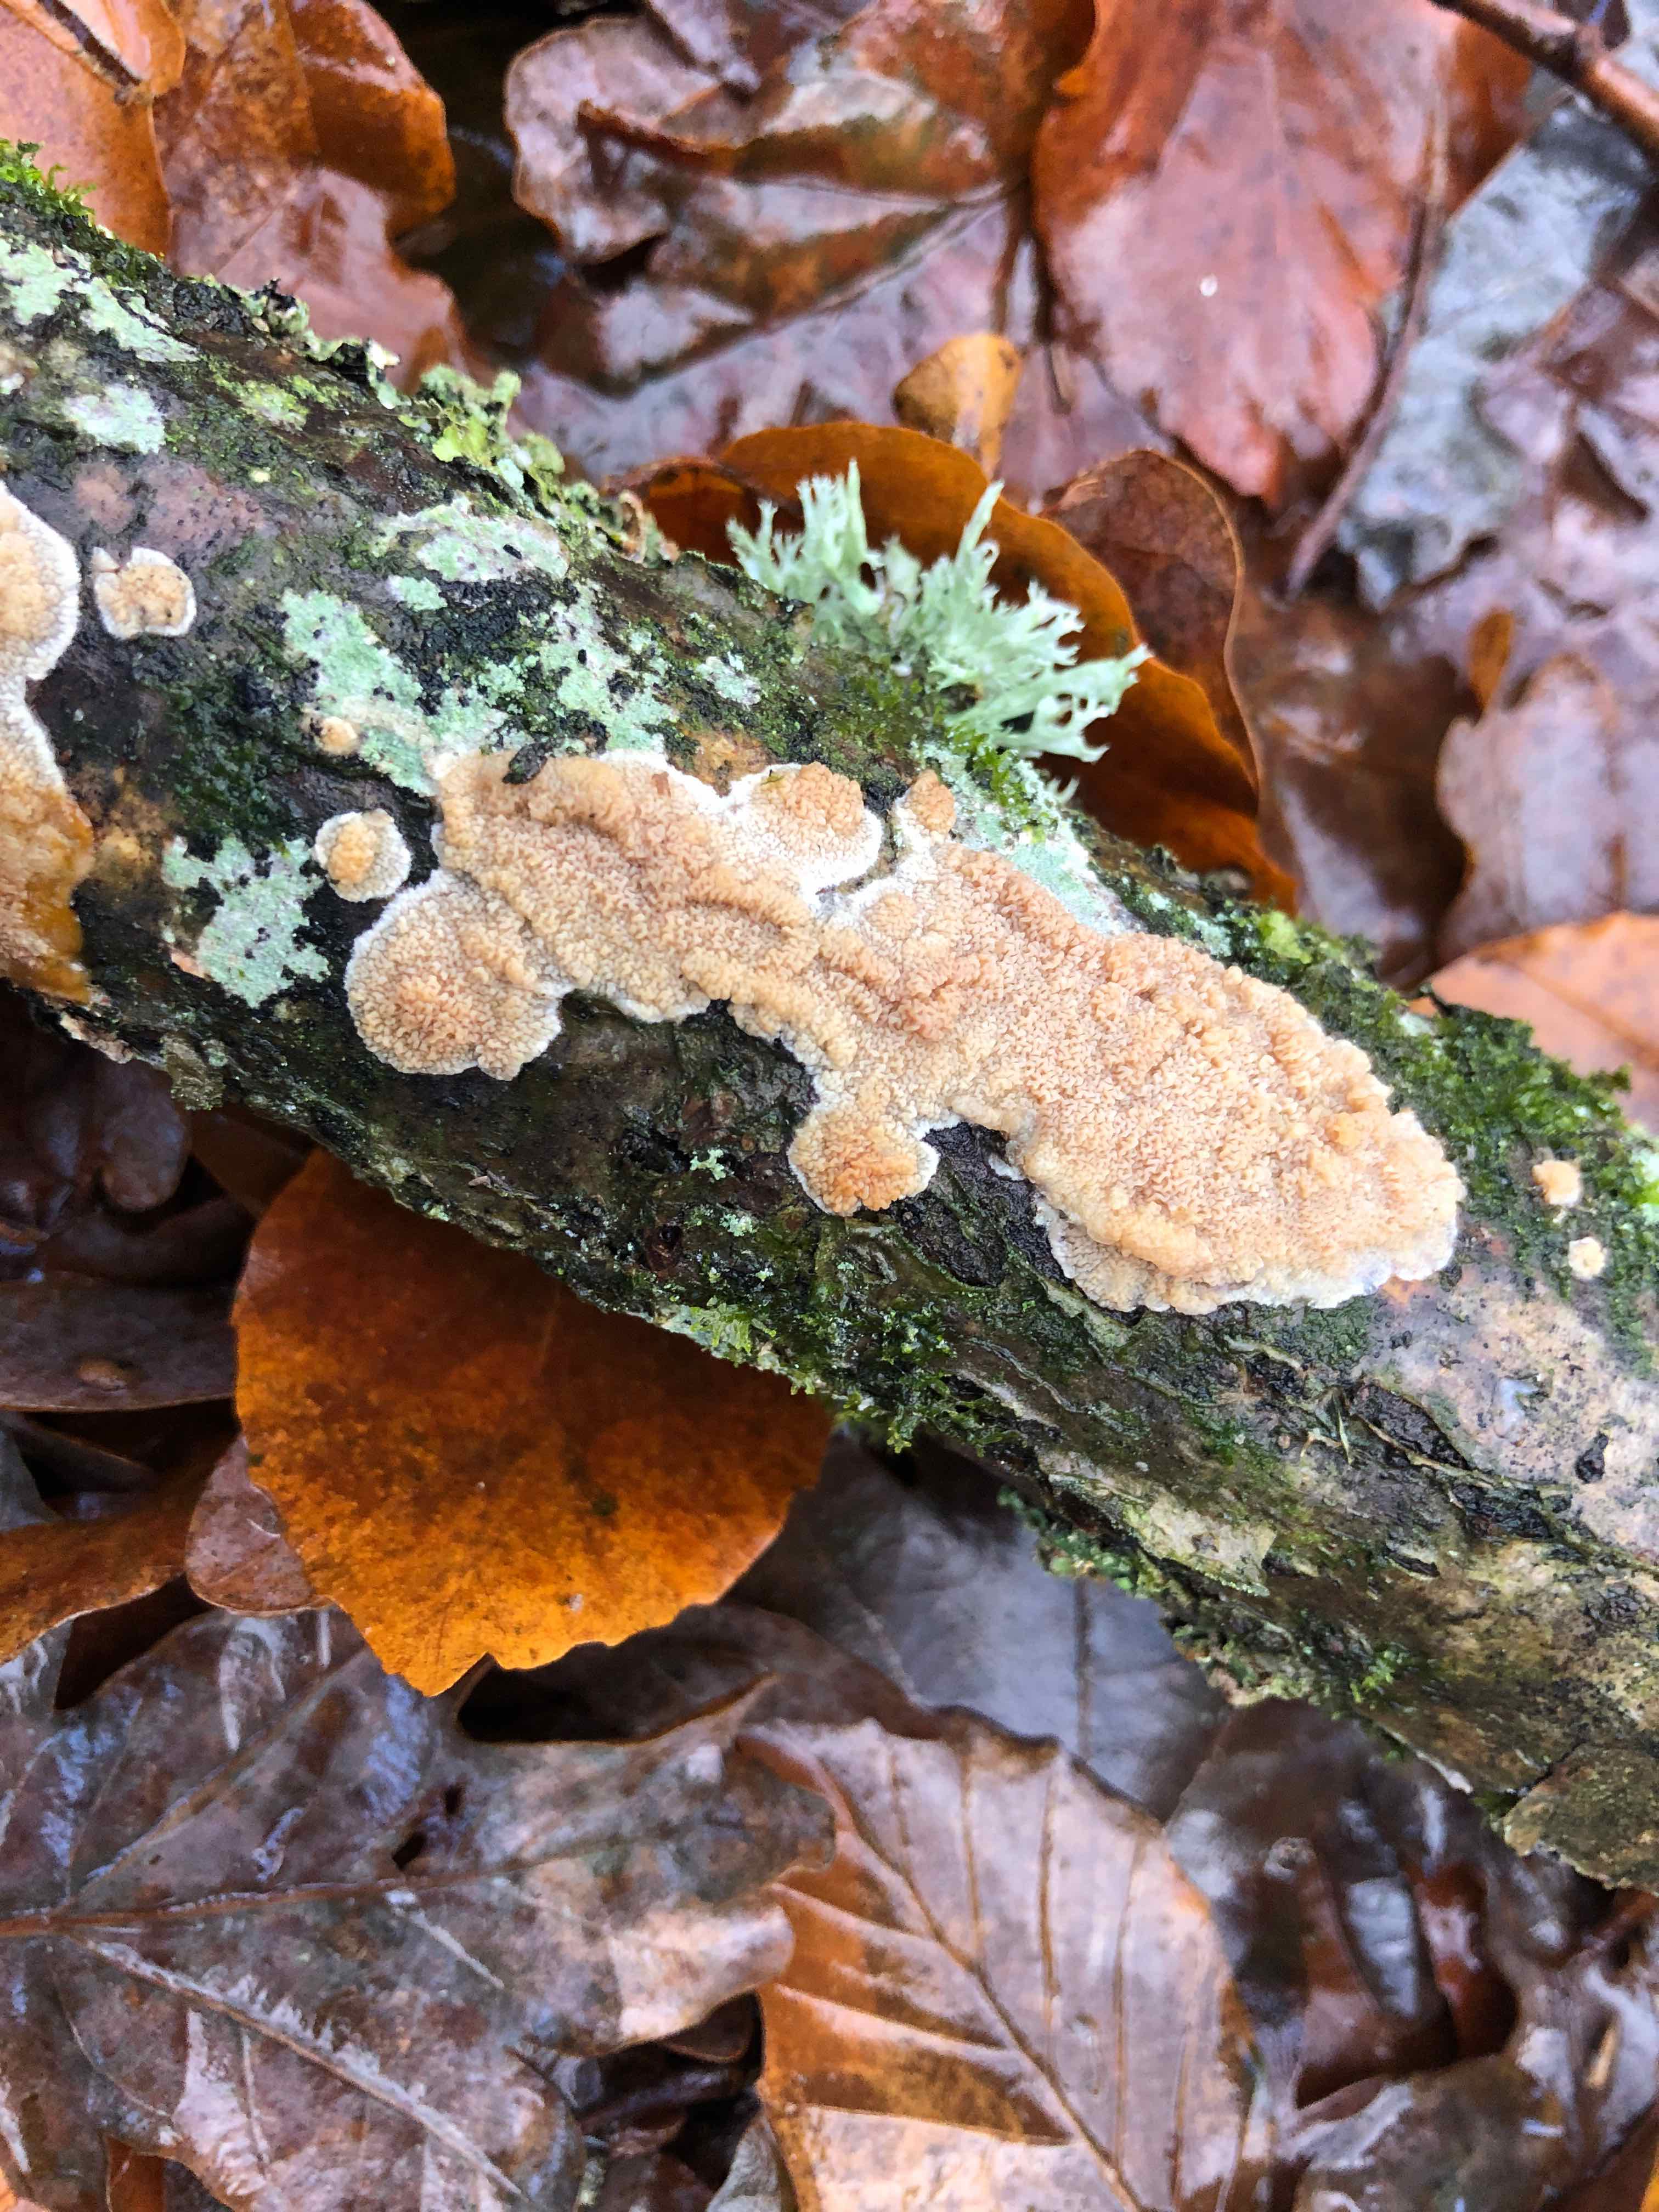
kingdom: Fungi
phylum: Basidiomycota
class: Agaricomycetes
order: Polyporales
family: Meruliaceae
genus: Phlebia
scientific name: Phlebia rufa
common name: ege-åresvamp
